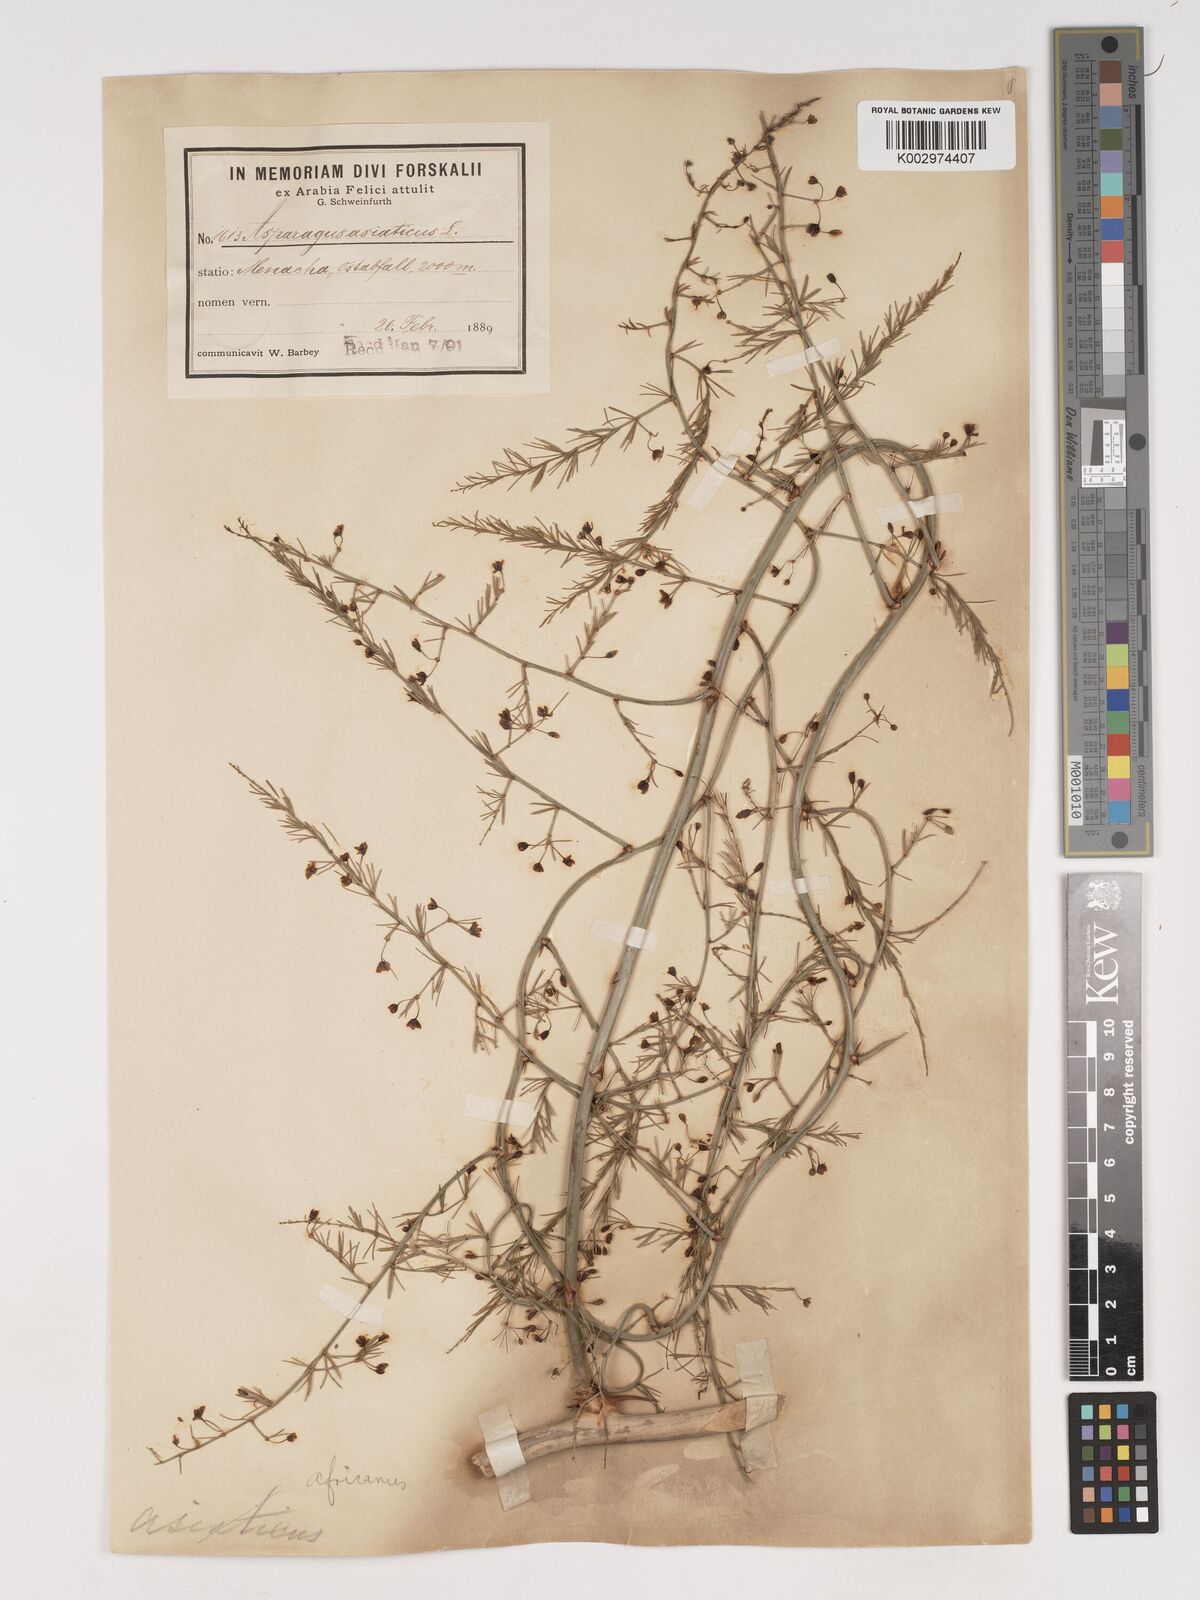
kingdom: Plantae
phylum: Tracheophyta
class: Liliopsida
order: Asparagales
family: Asparagaceae
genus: Asparagus
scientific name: Asparagus asiaticus
